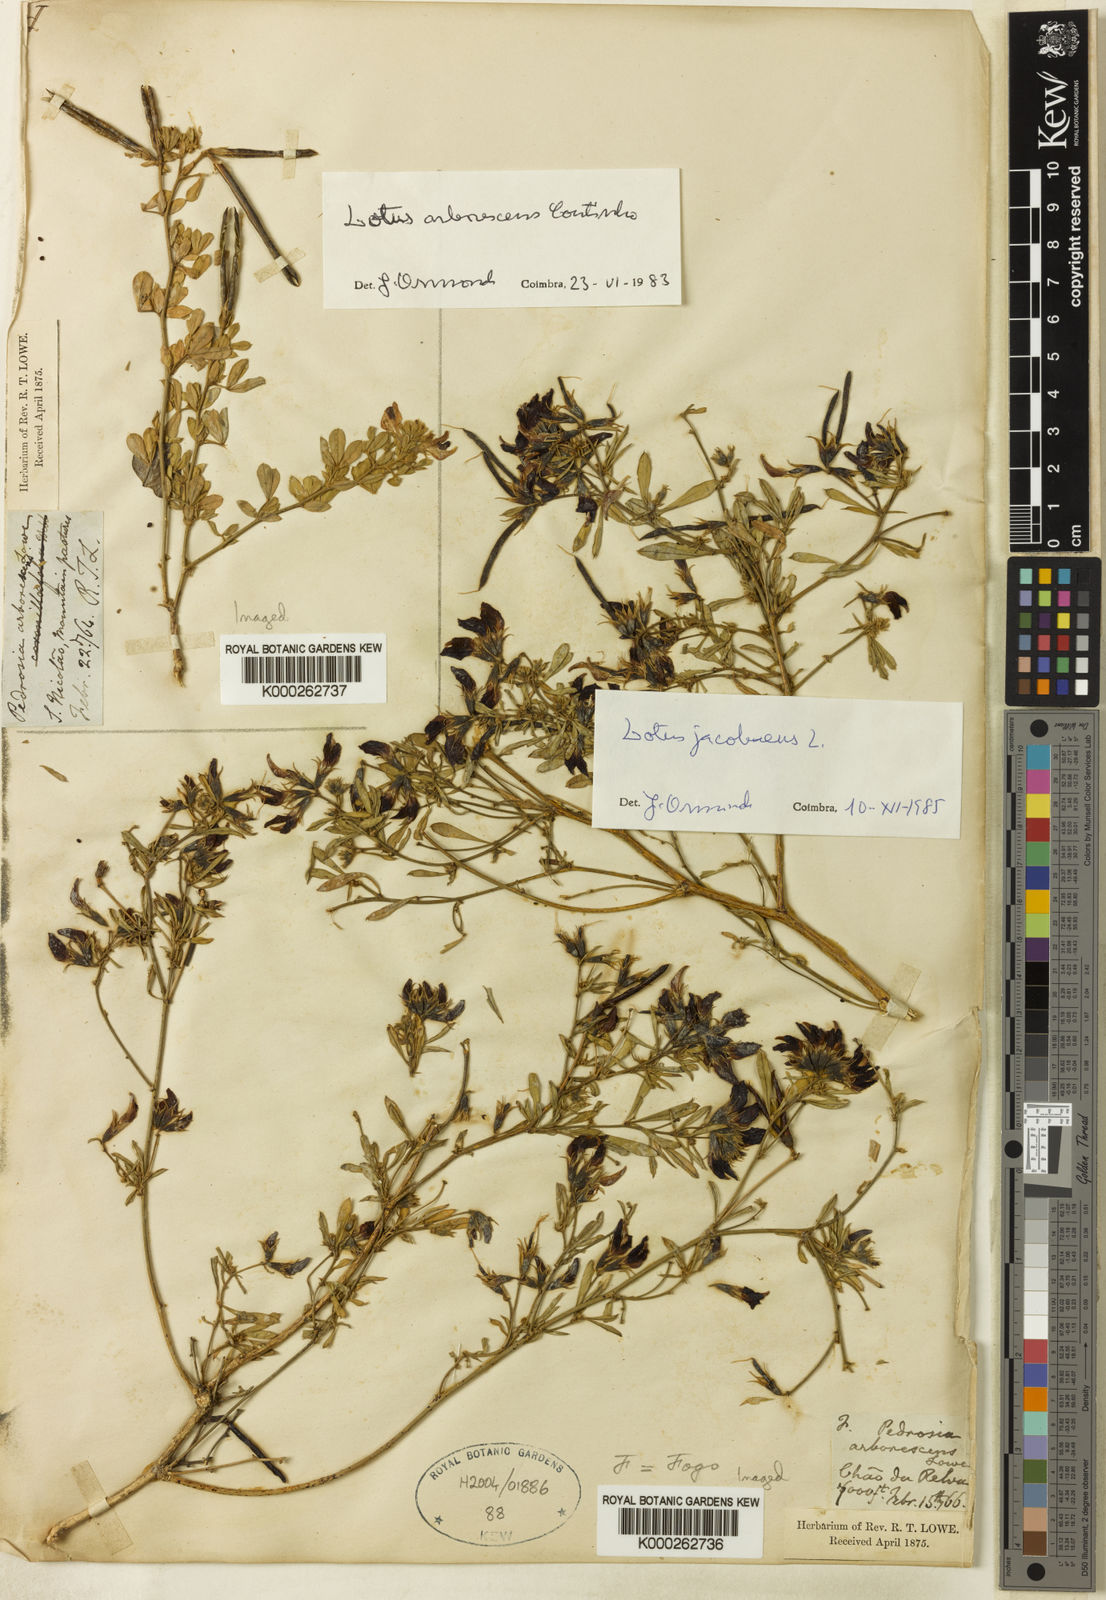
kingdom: Plantae
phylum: Tracheophyta
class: Magnoliopsida
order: Fabales
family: Fabaceae
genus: Lotus
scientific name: Lotus jacobaeus
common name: St. james's trefoil
